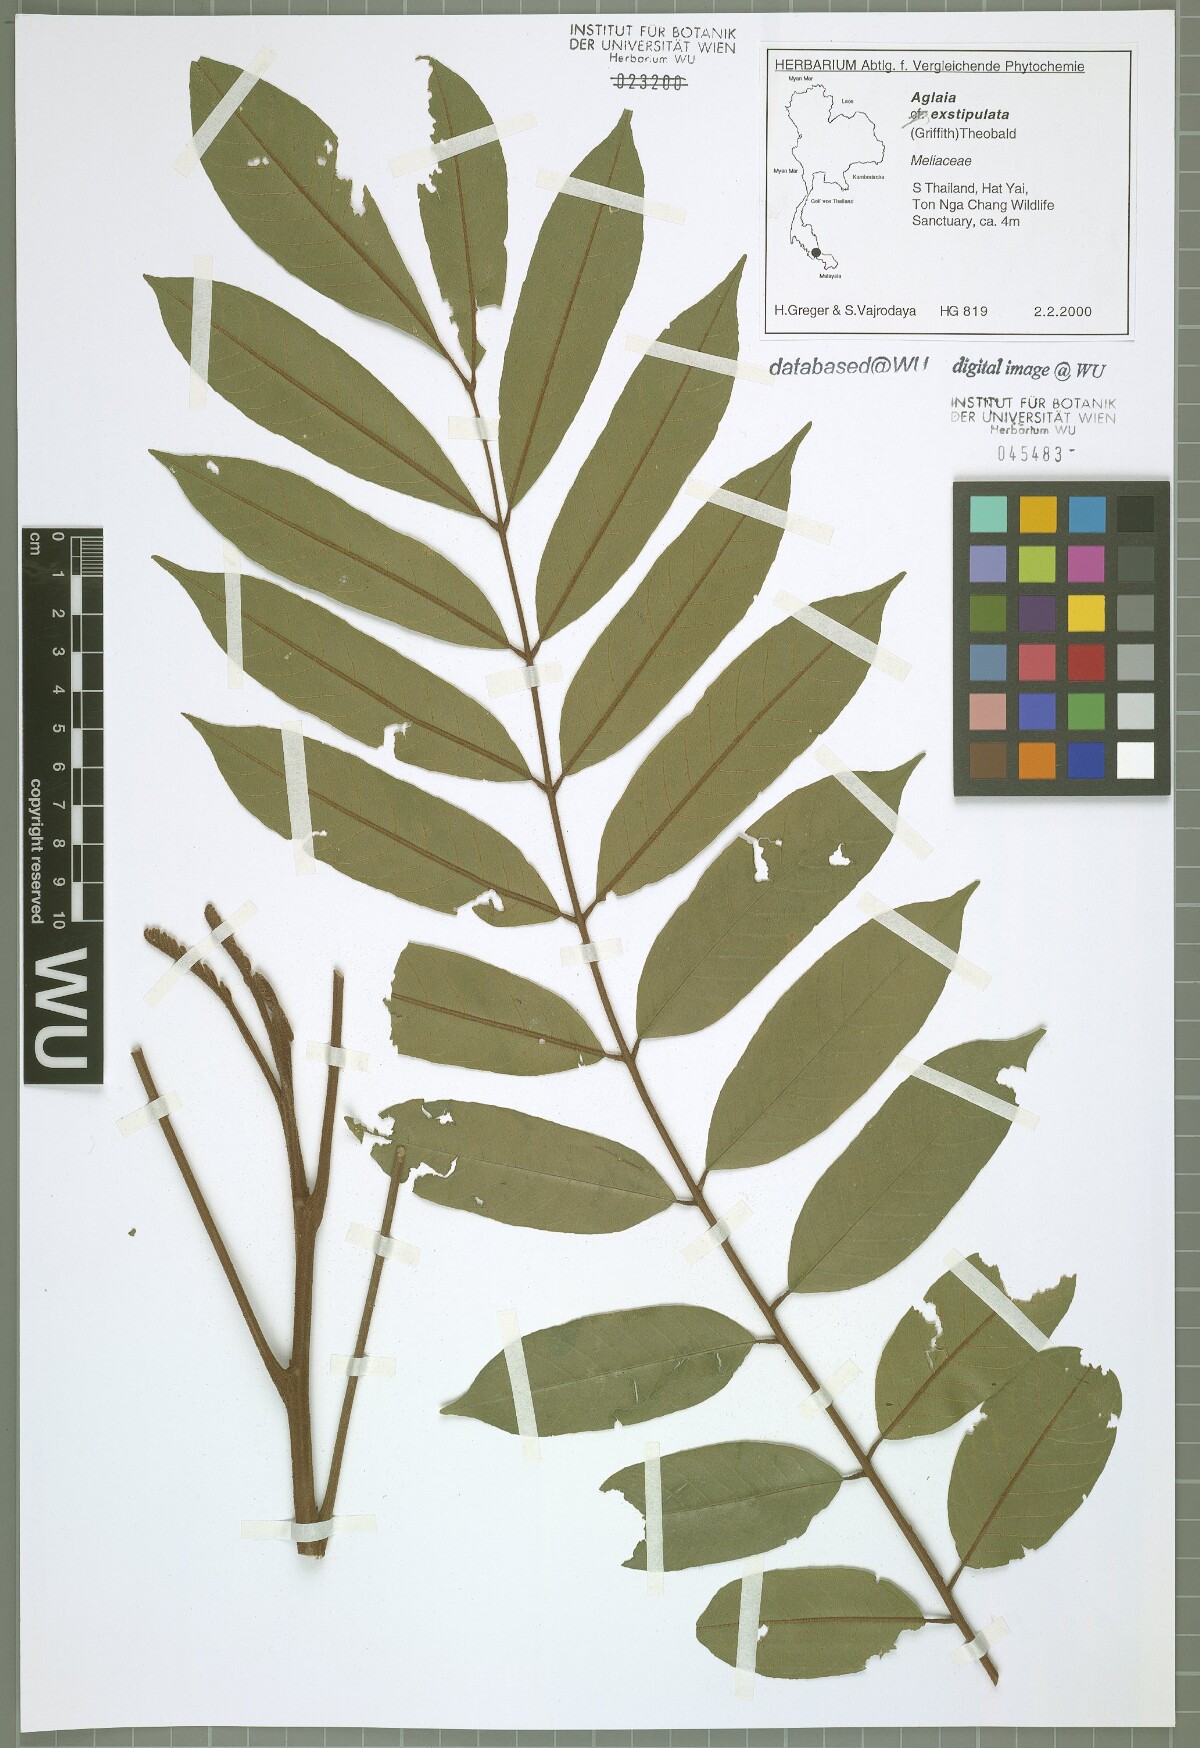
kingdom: Plantae
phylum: Tracheophyta
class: Magnoliopsida
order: Sapindales
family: Meliaceae
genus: Aglaia
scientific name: Aglaia exstipulata
